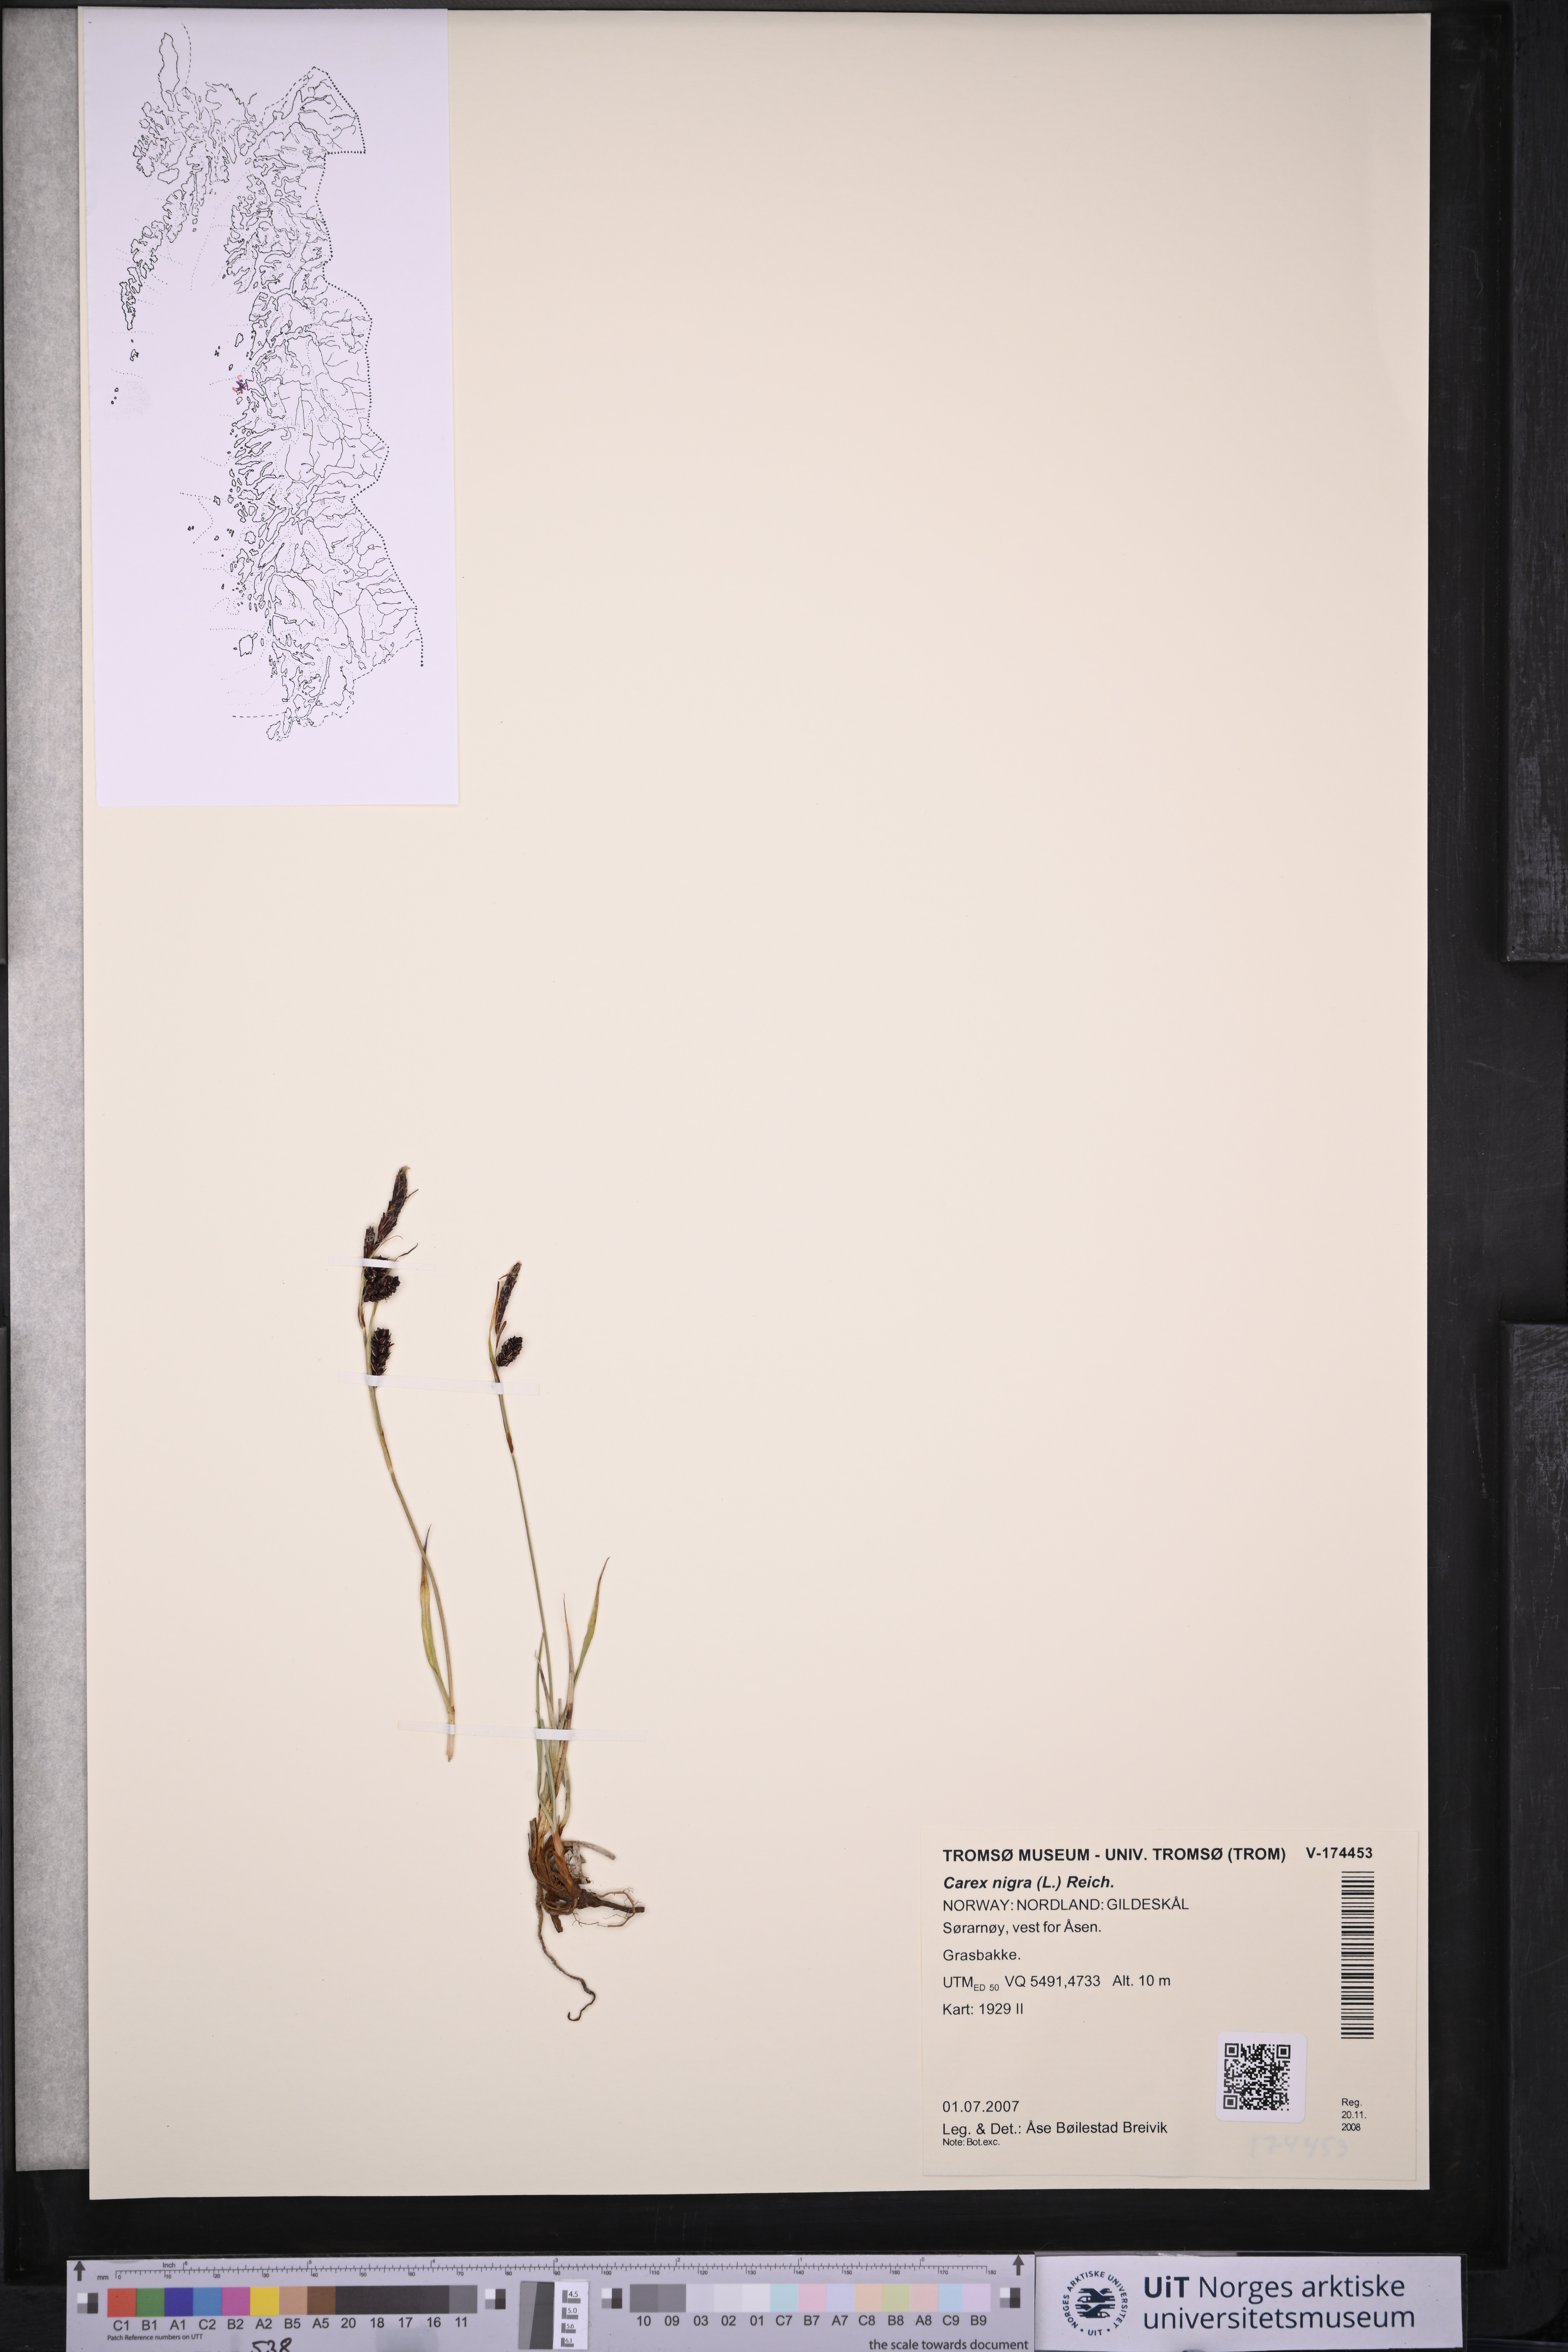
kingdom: Plantae
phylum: Tracheophyta
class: Liliopsida
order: Poales
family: Cyperaceae
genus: Carex
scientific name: Carex nigra
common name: Common sedge
